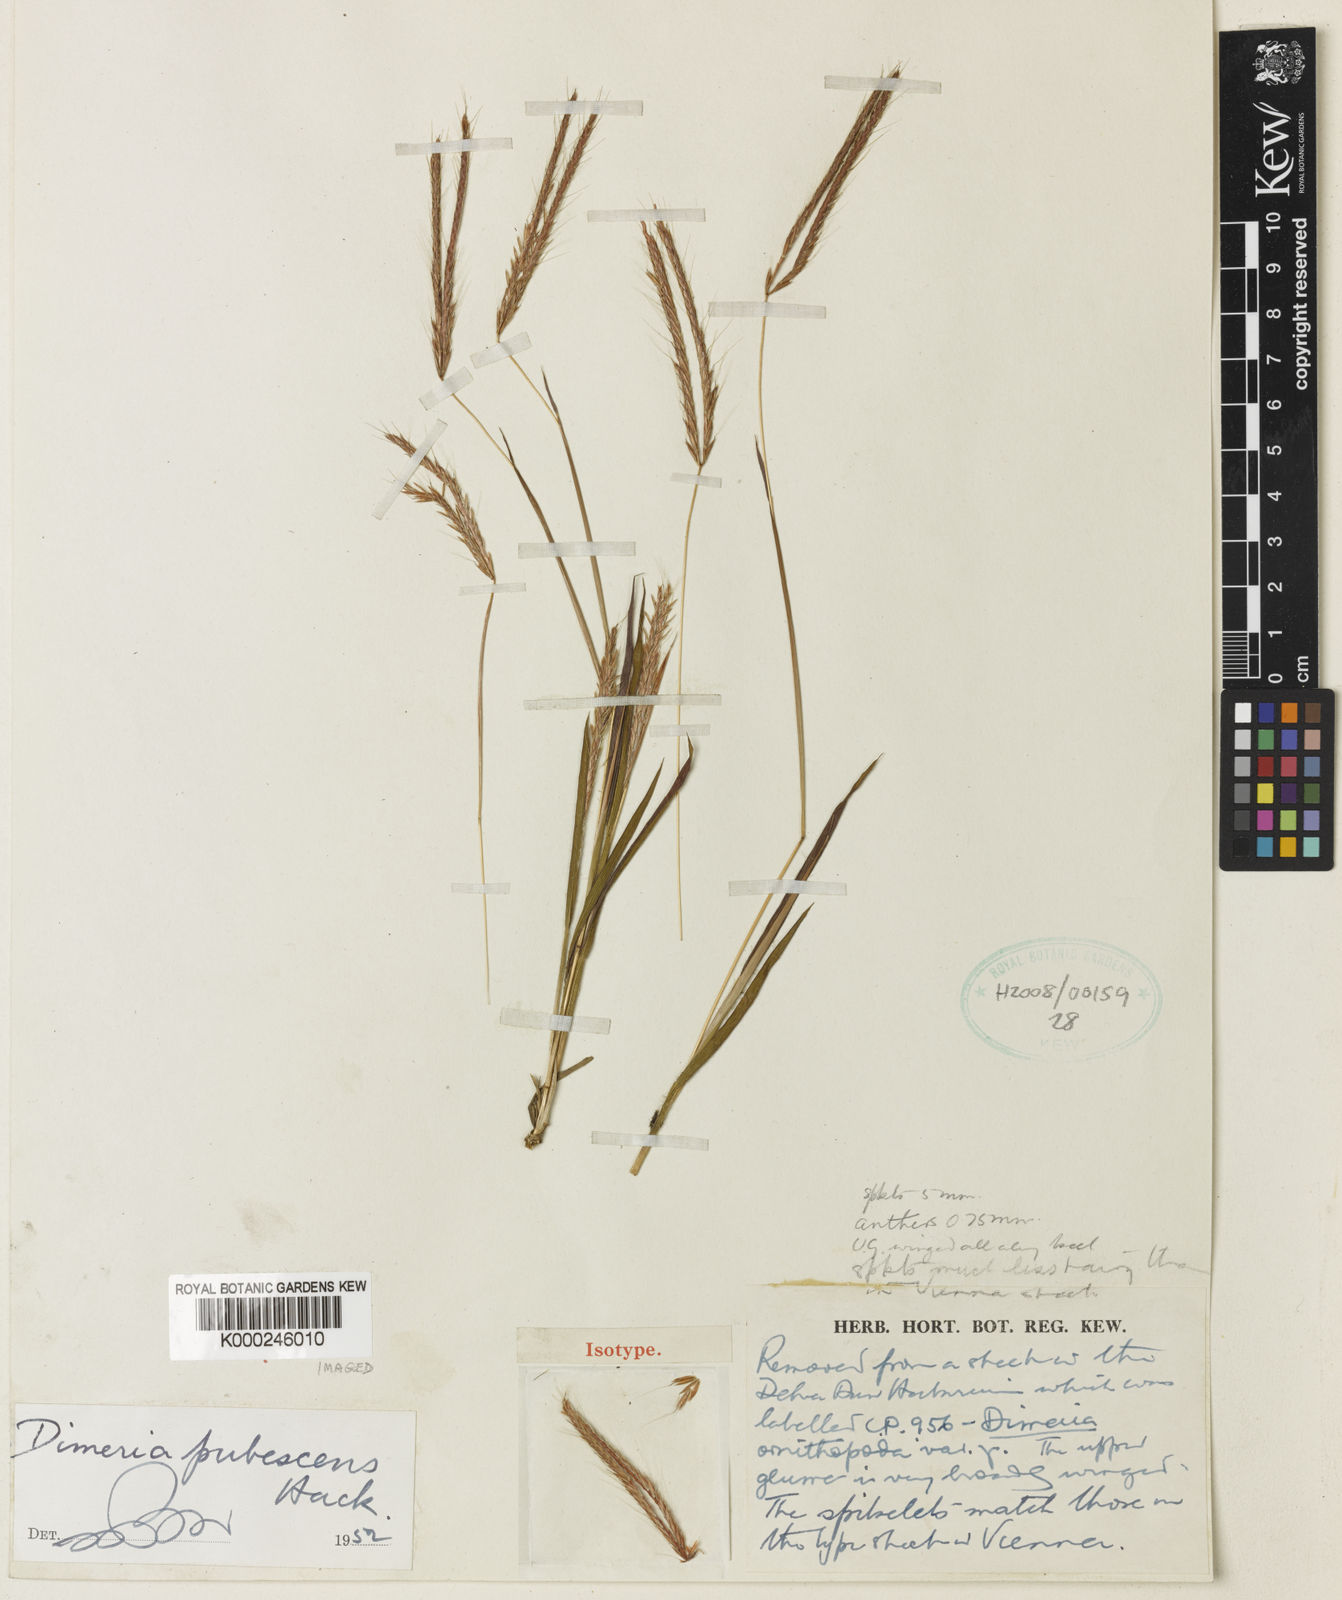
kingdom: Plantae
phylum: Tracheophyta
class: Liliopsida
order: Poales
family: Poaceae
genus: Dimeria
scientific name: Dimeria chloridiformis
